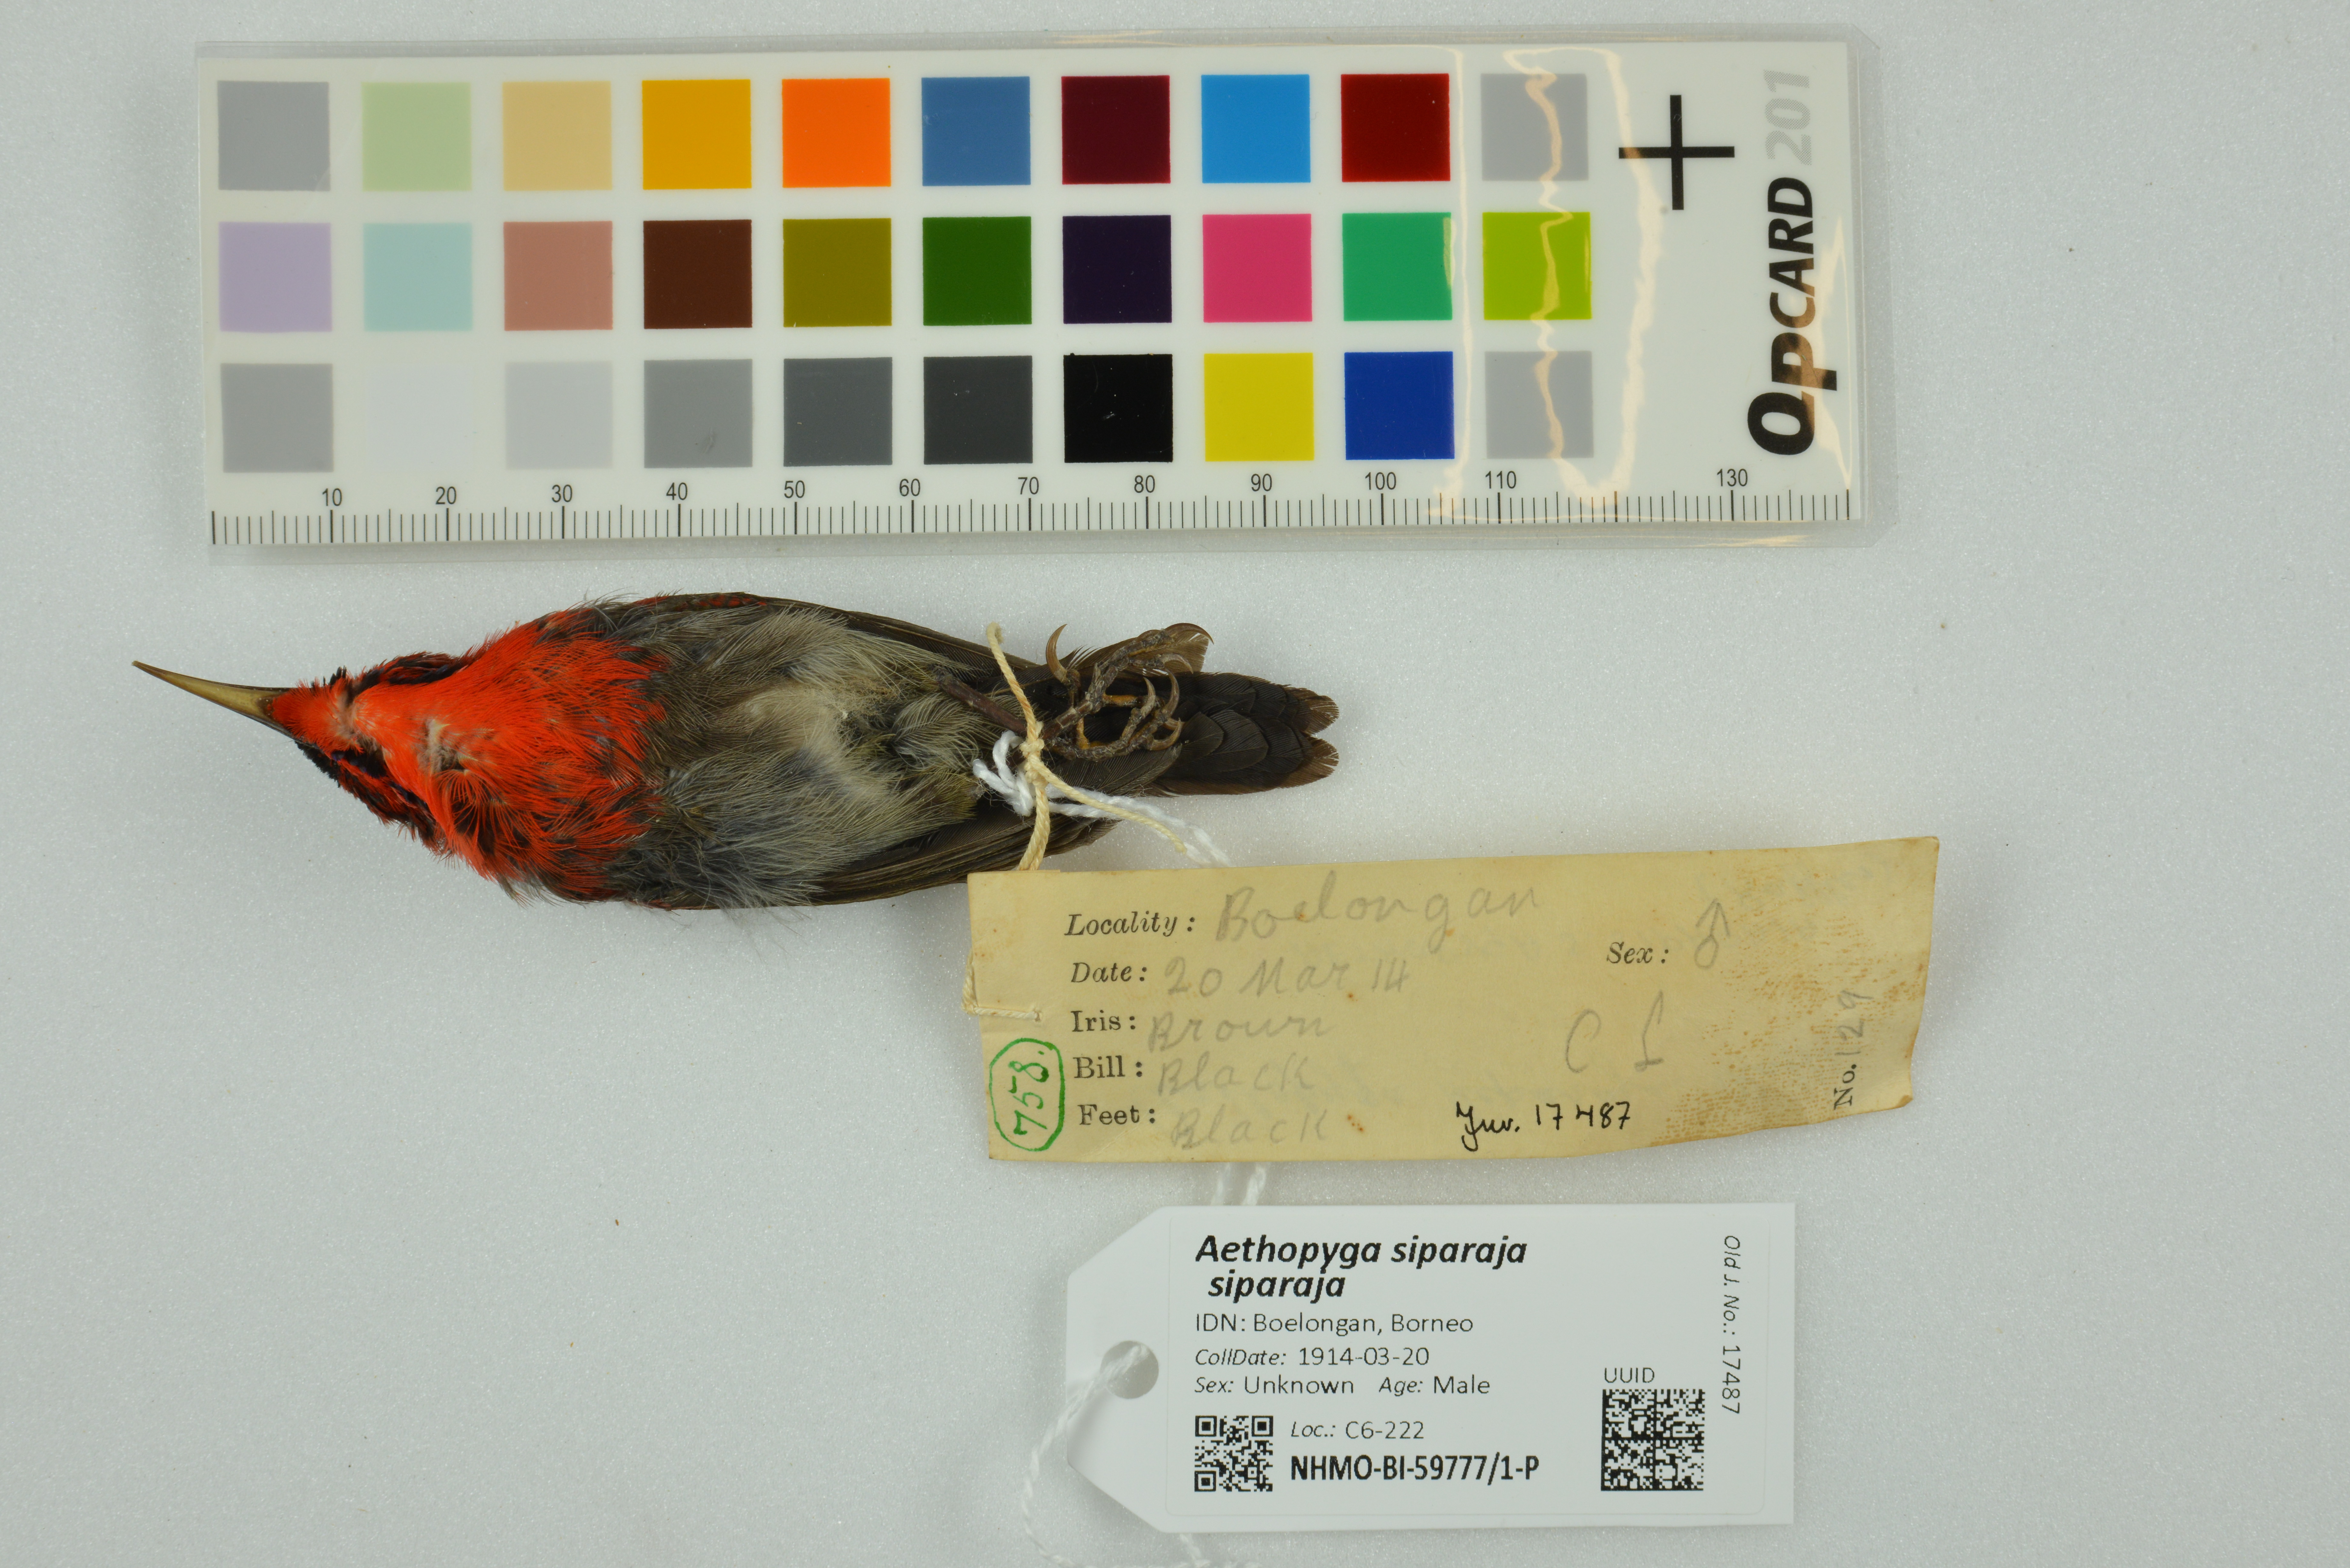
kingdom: Animalia
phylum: Chordata
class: Aves
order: Passeriformes
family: Nectariniidae
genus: Aethopyga
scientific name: Aethopyga siparaja
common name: Crimson sunbird
